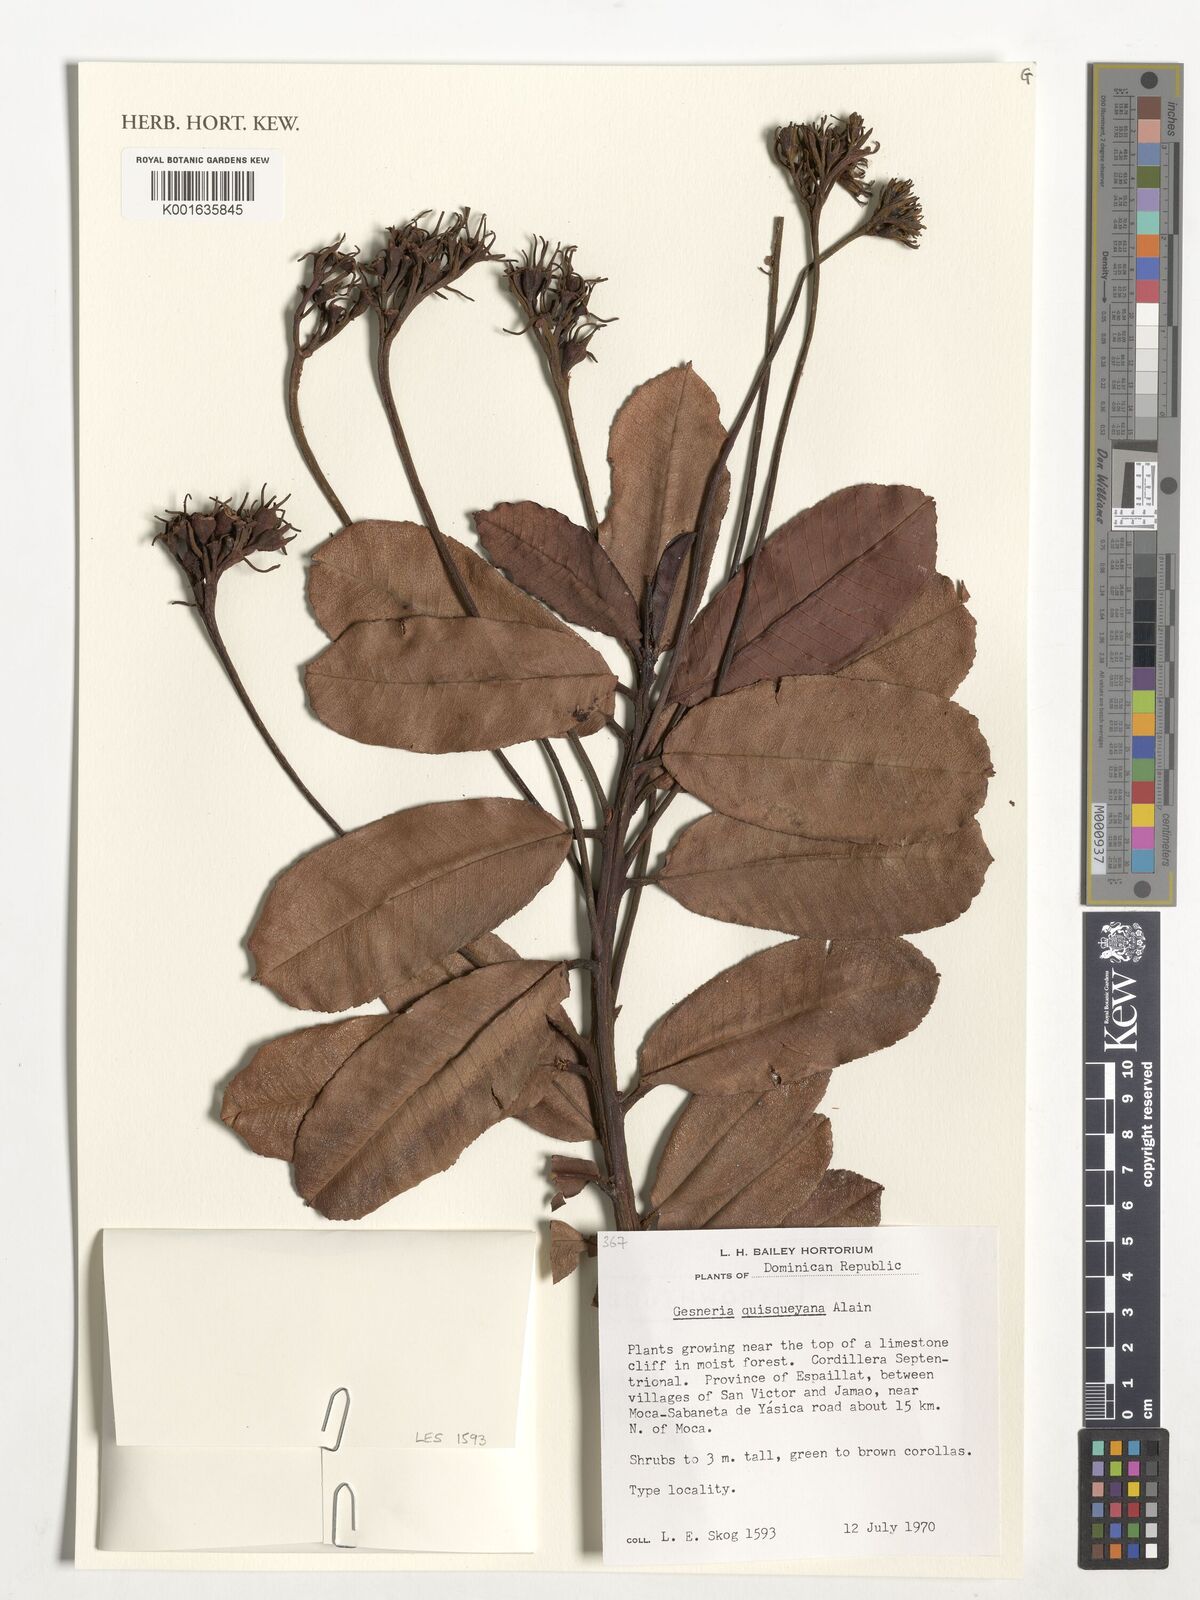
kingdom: Plantae
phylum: Tracheophyta
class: Magnoliopsida
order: Lamiales
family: Gesneriaceae
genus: Gesneria
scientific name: Gesneria quisqueyana
